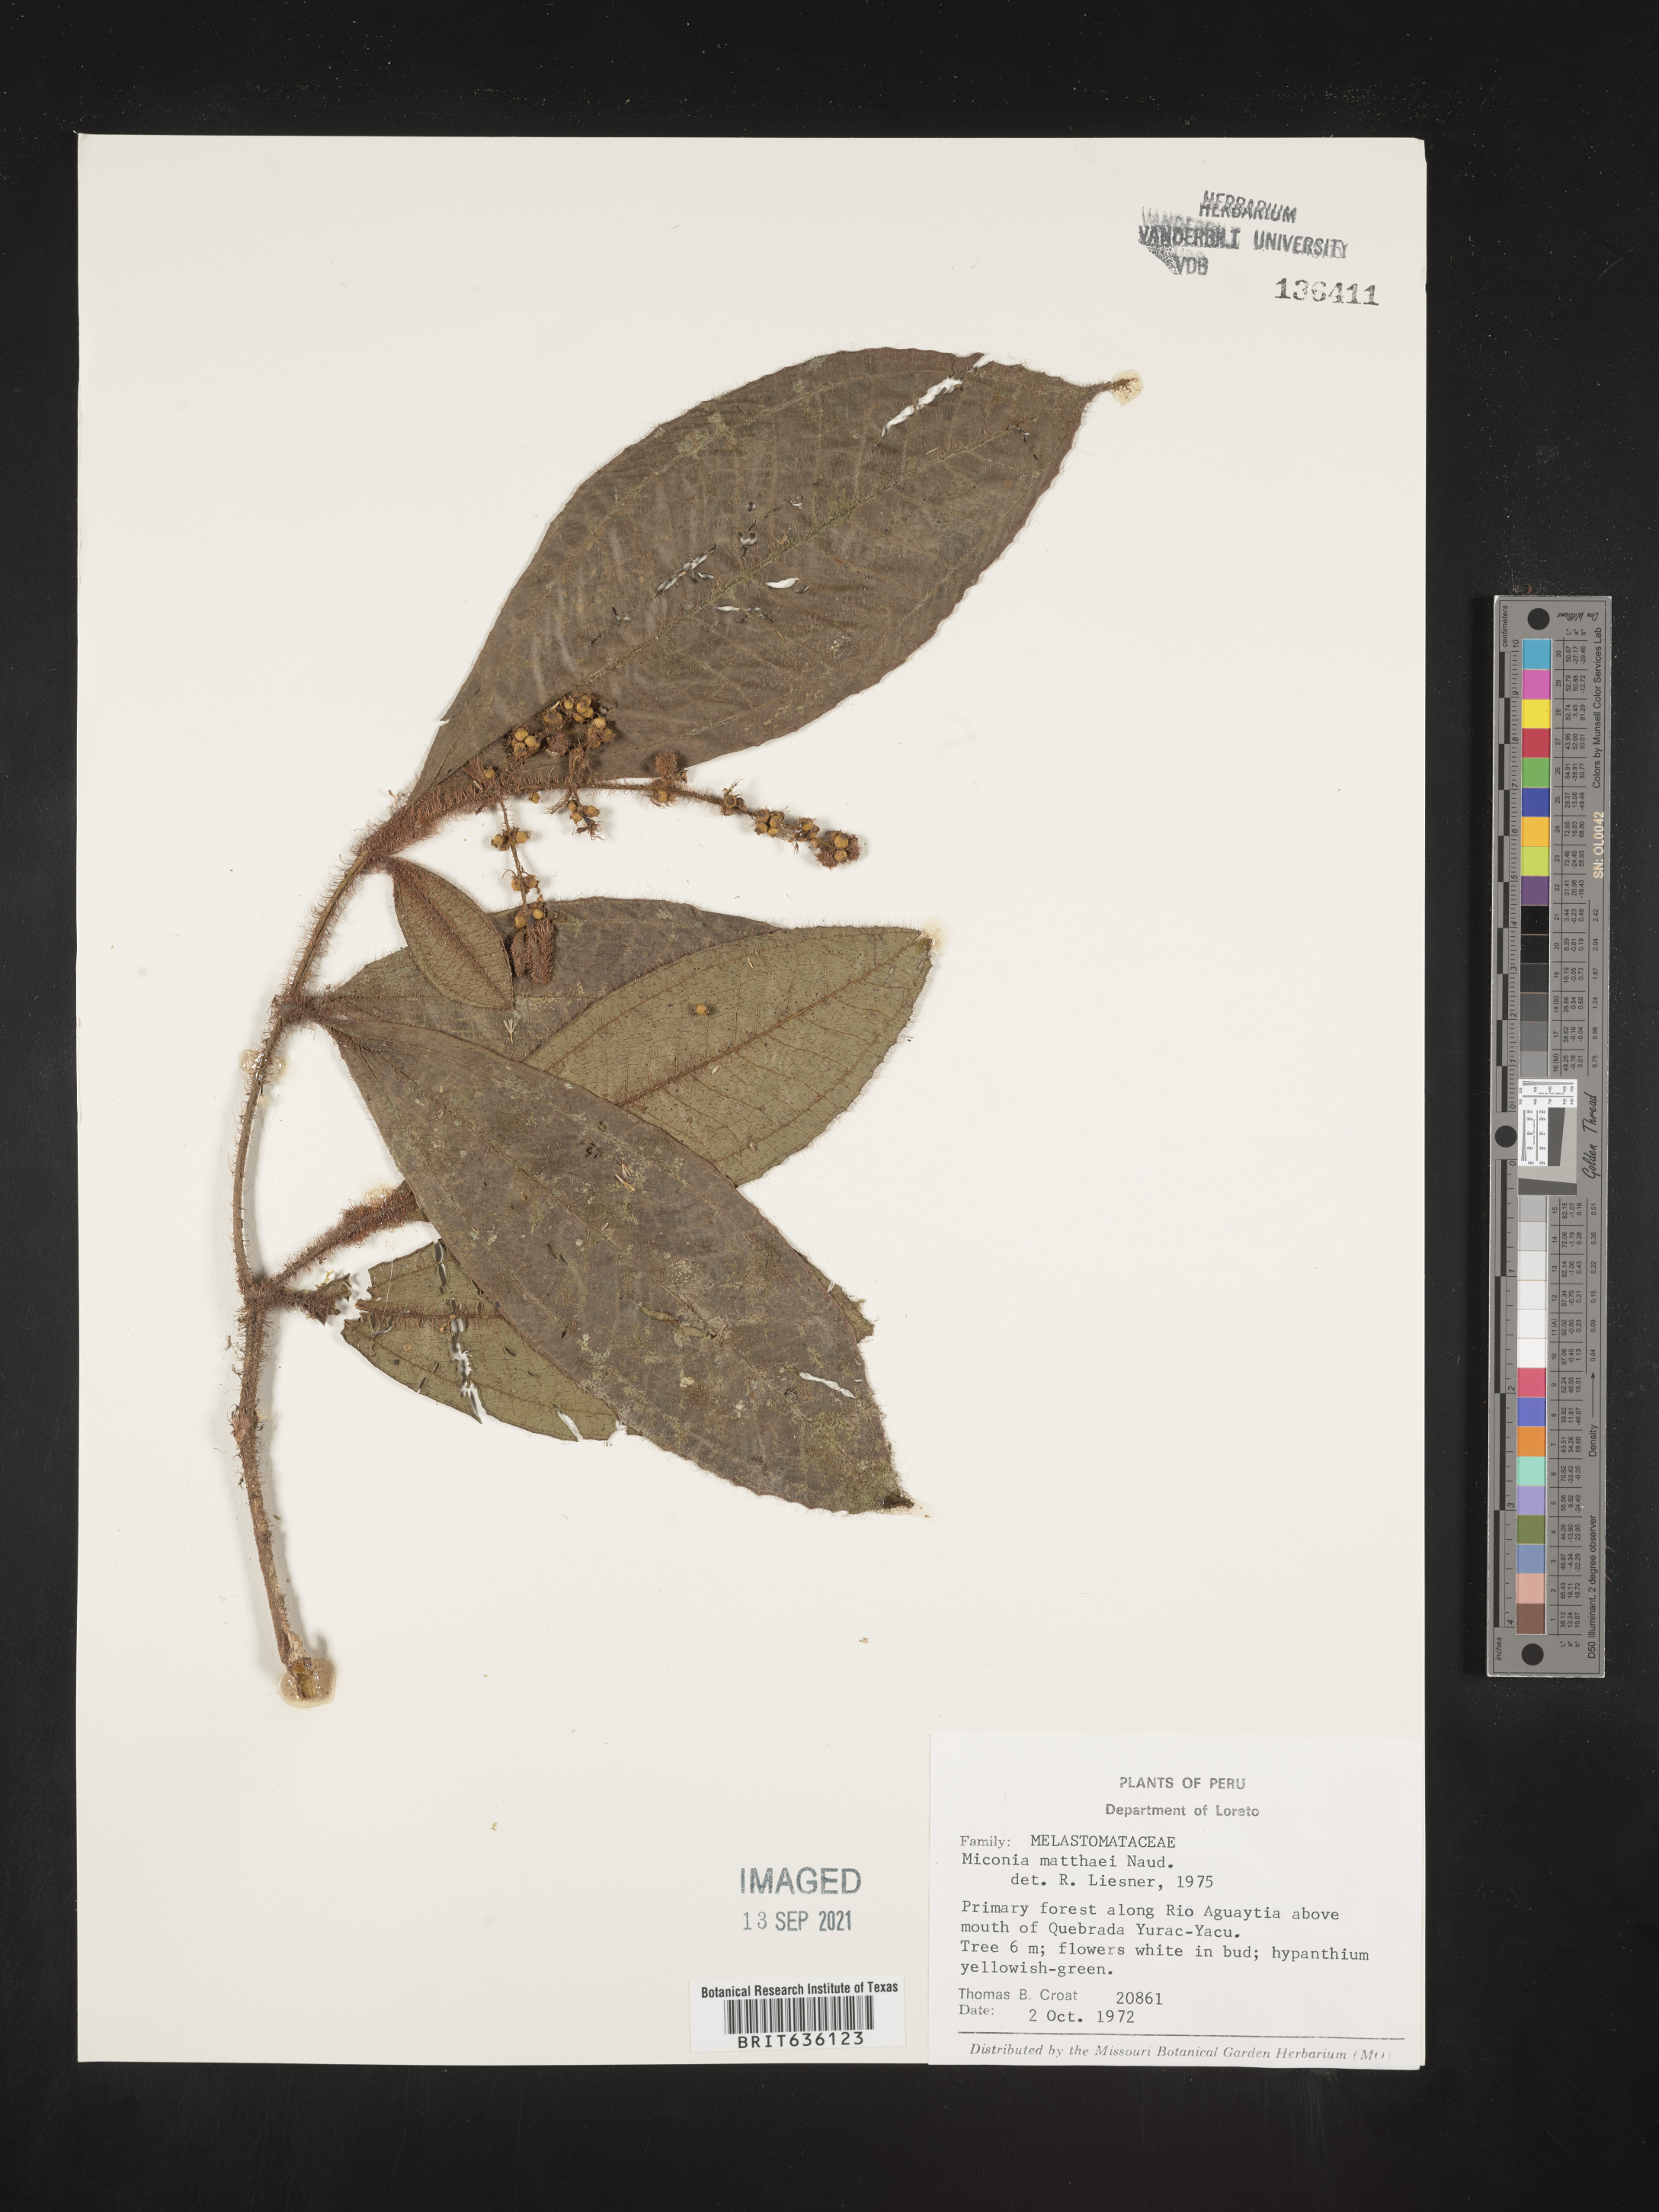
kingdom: Plantae
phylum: Tracheophyta
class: Magnoliopsida
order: Myrtales
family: Melastomataceae
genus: Miconia
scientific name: Miconia
